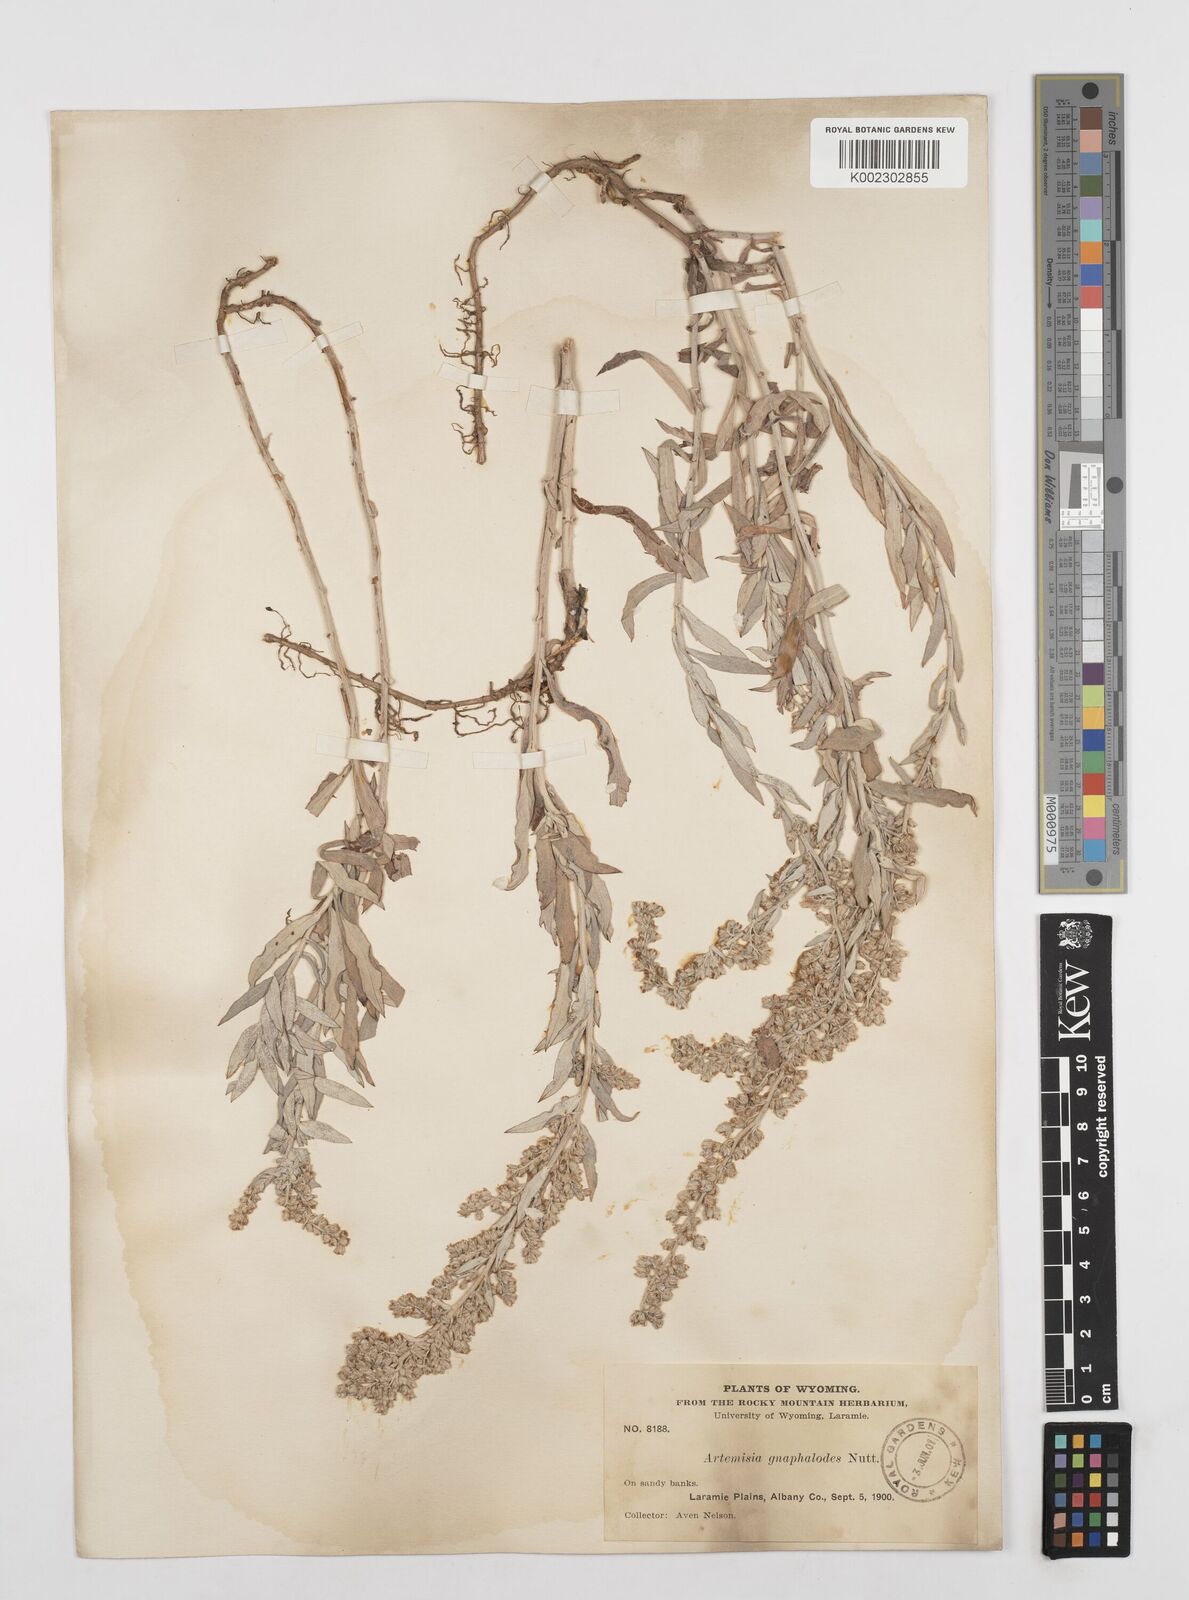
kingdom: Plantae
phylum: Tracheophyta
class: Magnoliopsida
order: Asterales
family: Asteraceae
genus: Artemisia
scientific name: Artemisia ludoviciana
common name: Western mugwort
